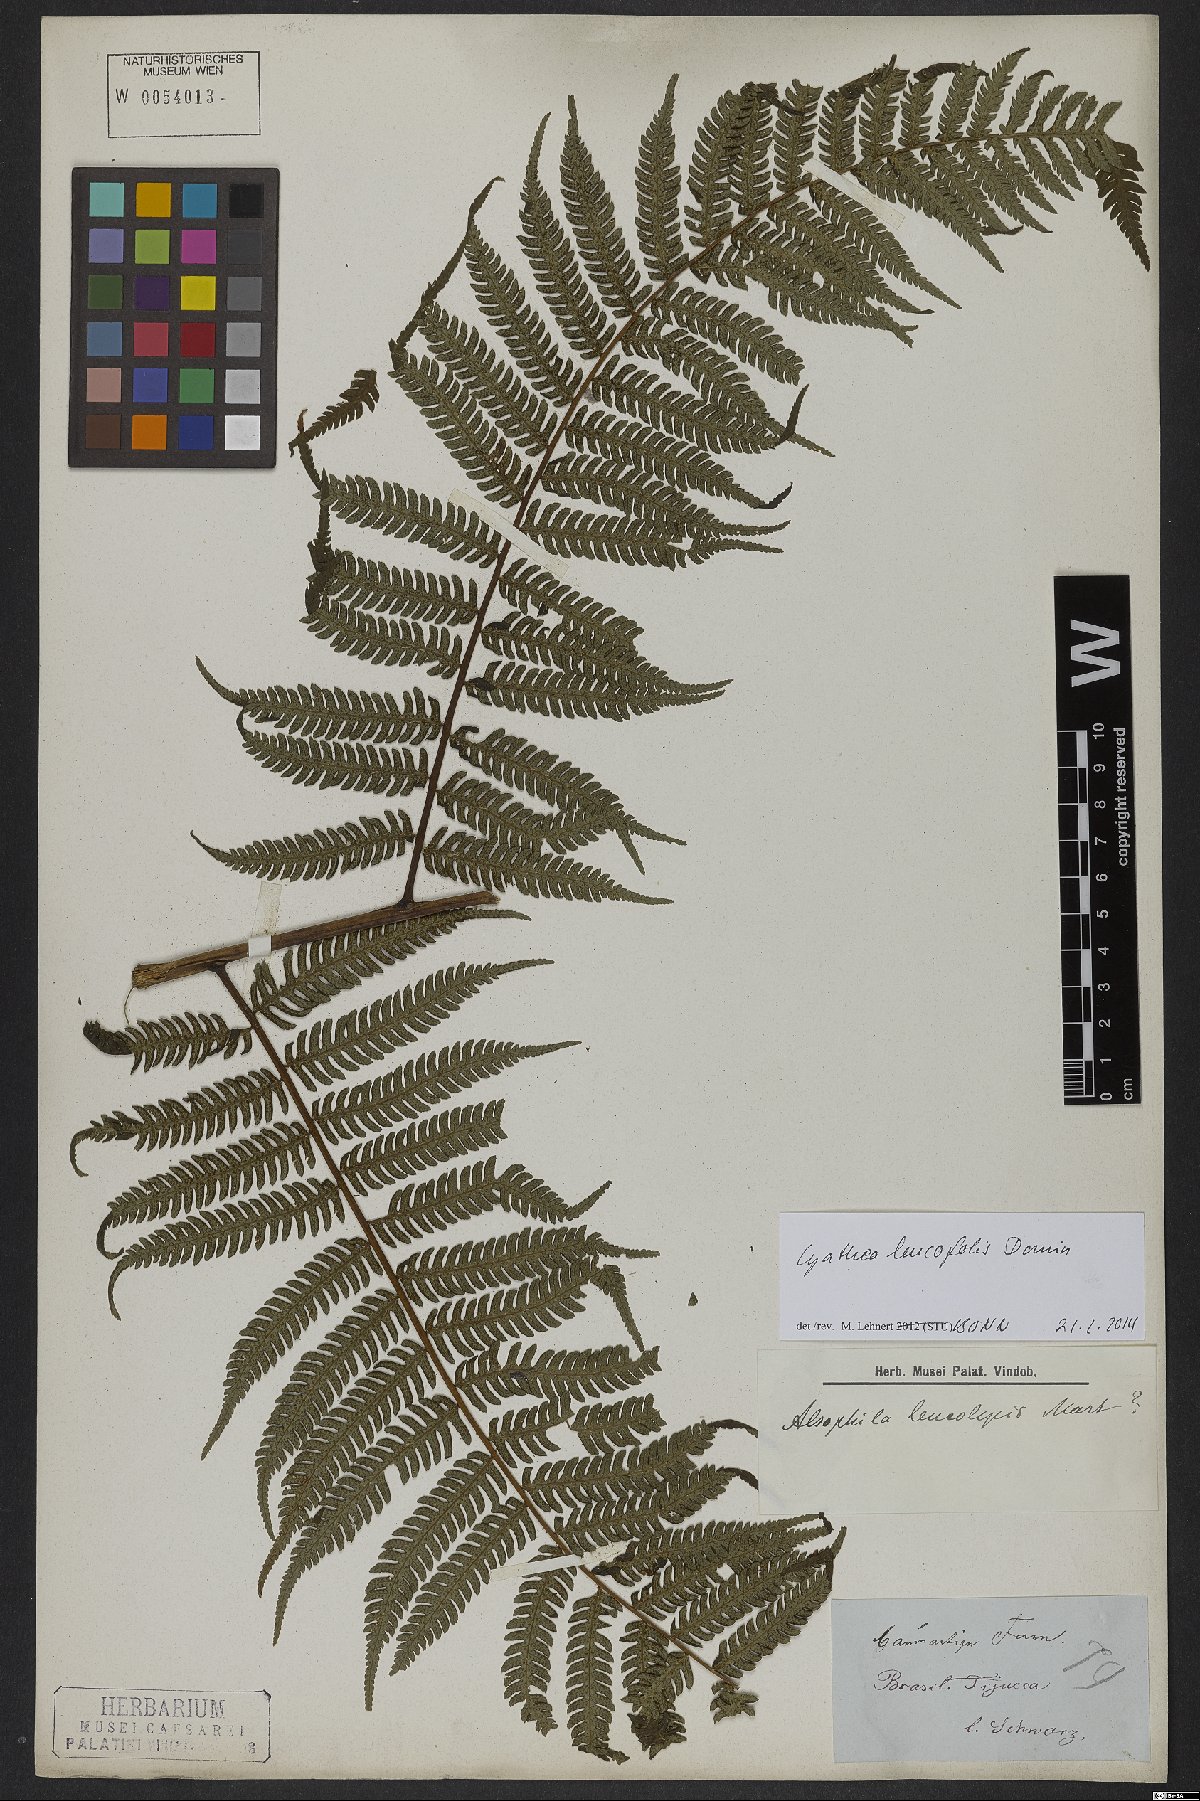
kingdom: Plantae
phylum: Tracheophyta
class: Polypodiopsida
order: Cyatheales
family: Cyatheaceae
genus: Cyathea
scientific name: Cyathea leucofolis
